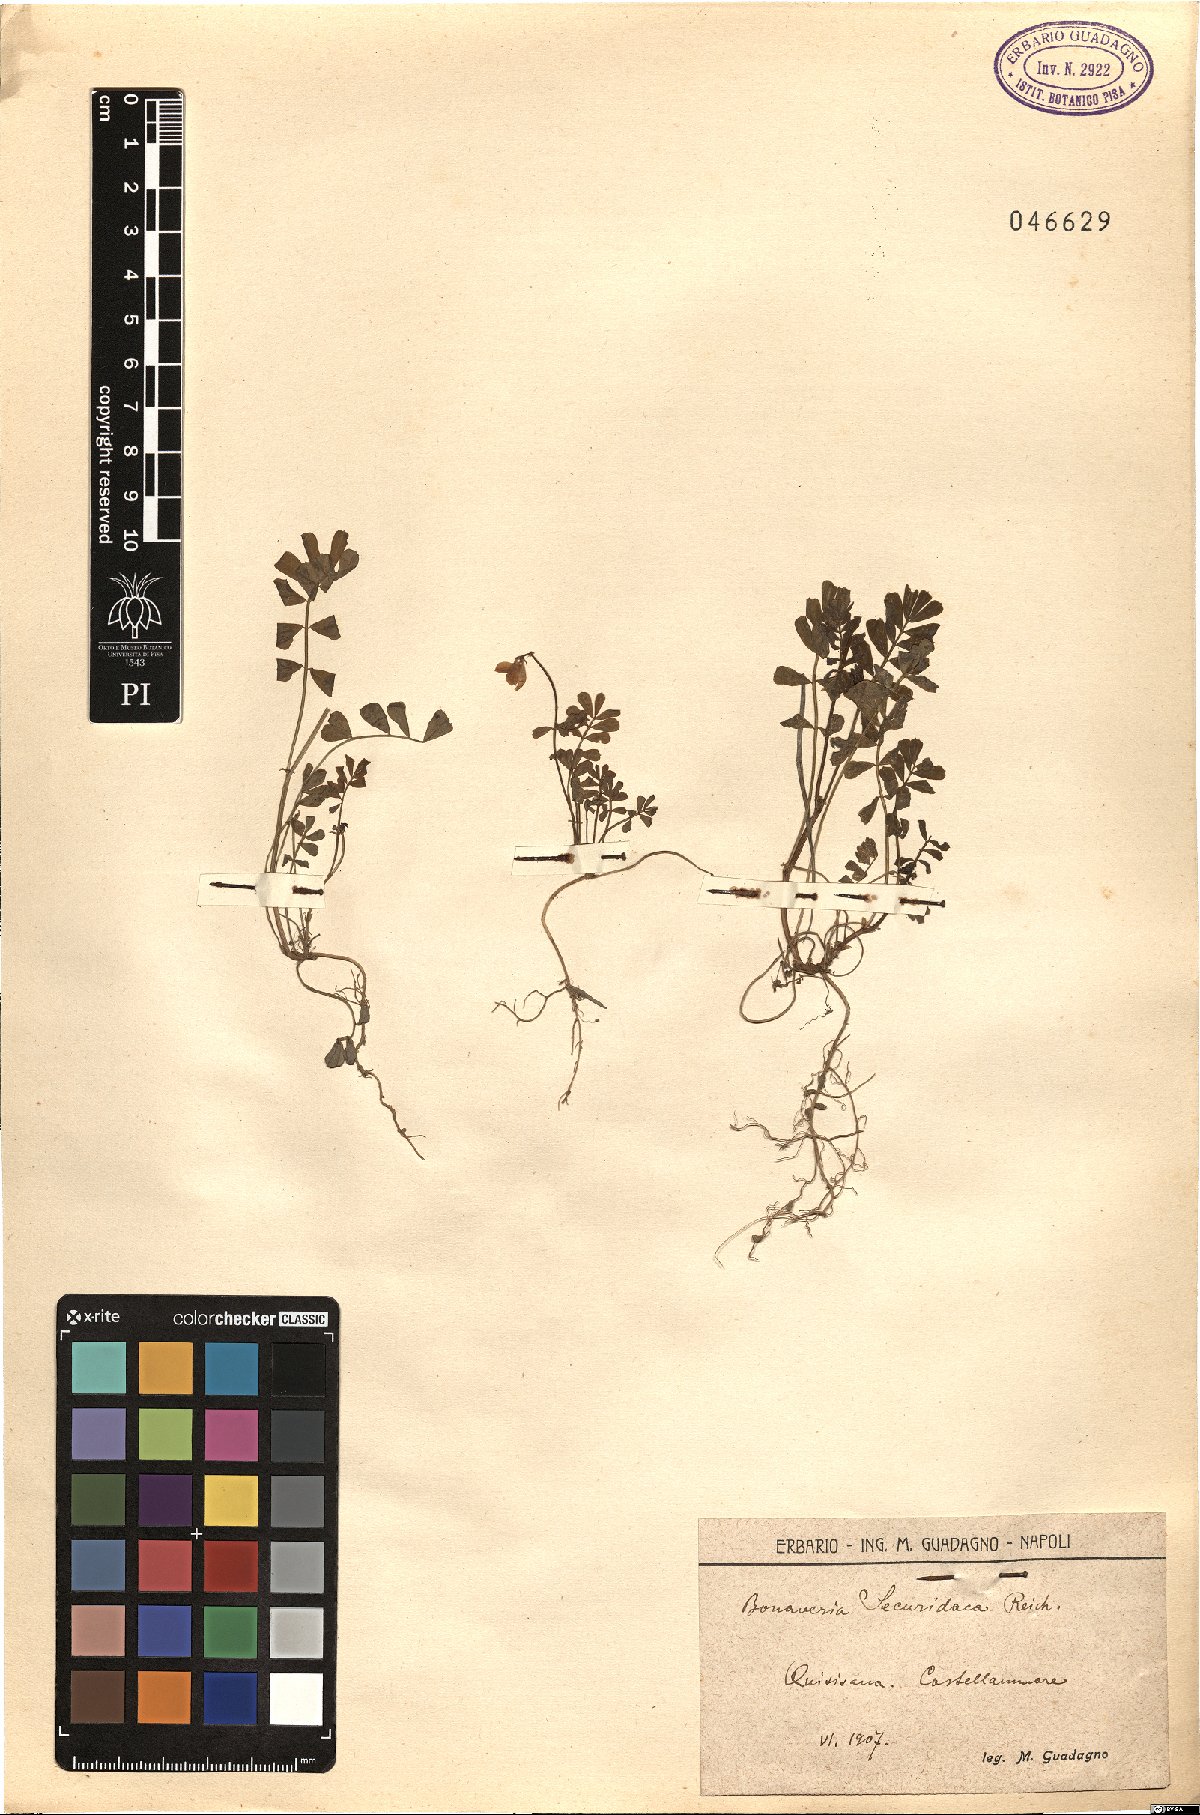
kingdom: Plantae
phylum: Tracheophyta
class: Magnoliopsida
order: Fabales
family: Fabaceae
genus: Coronilla
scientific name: Coronilla securidaca
